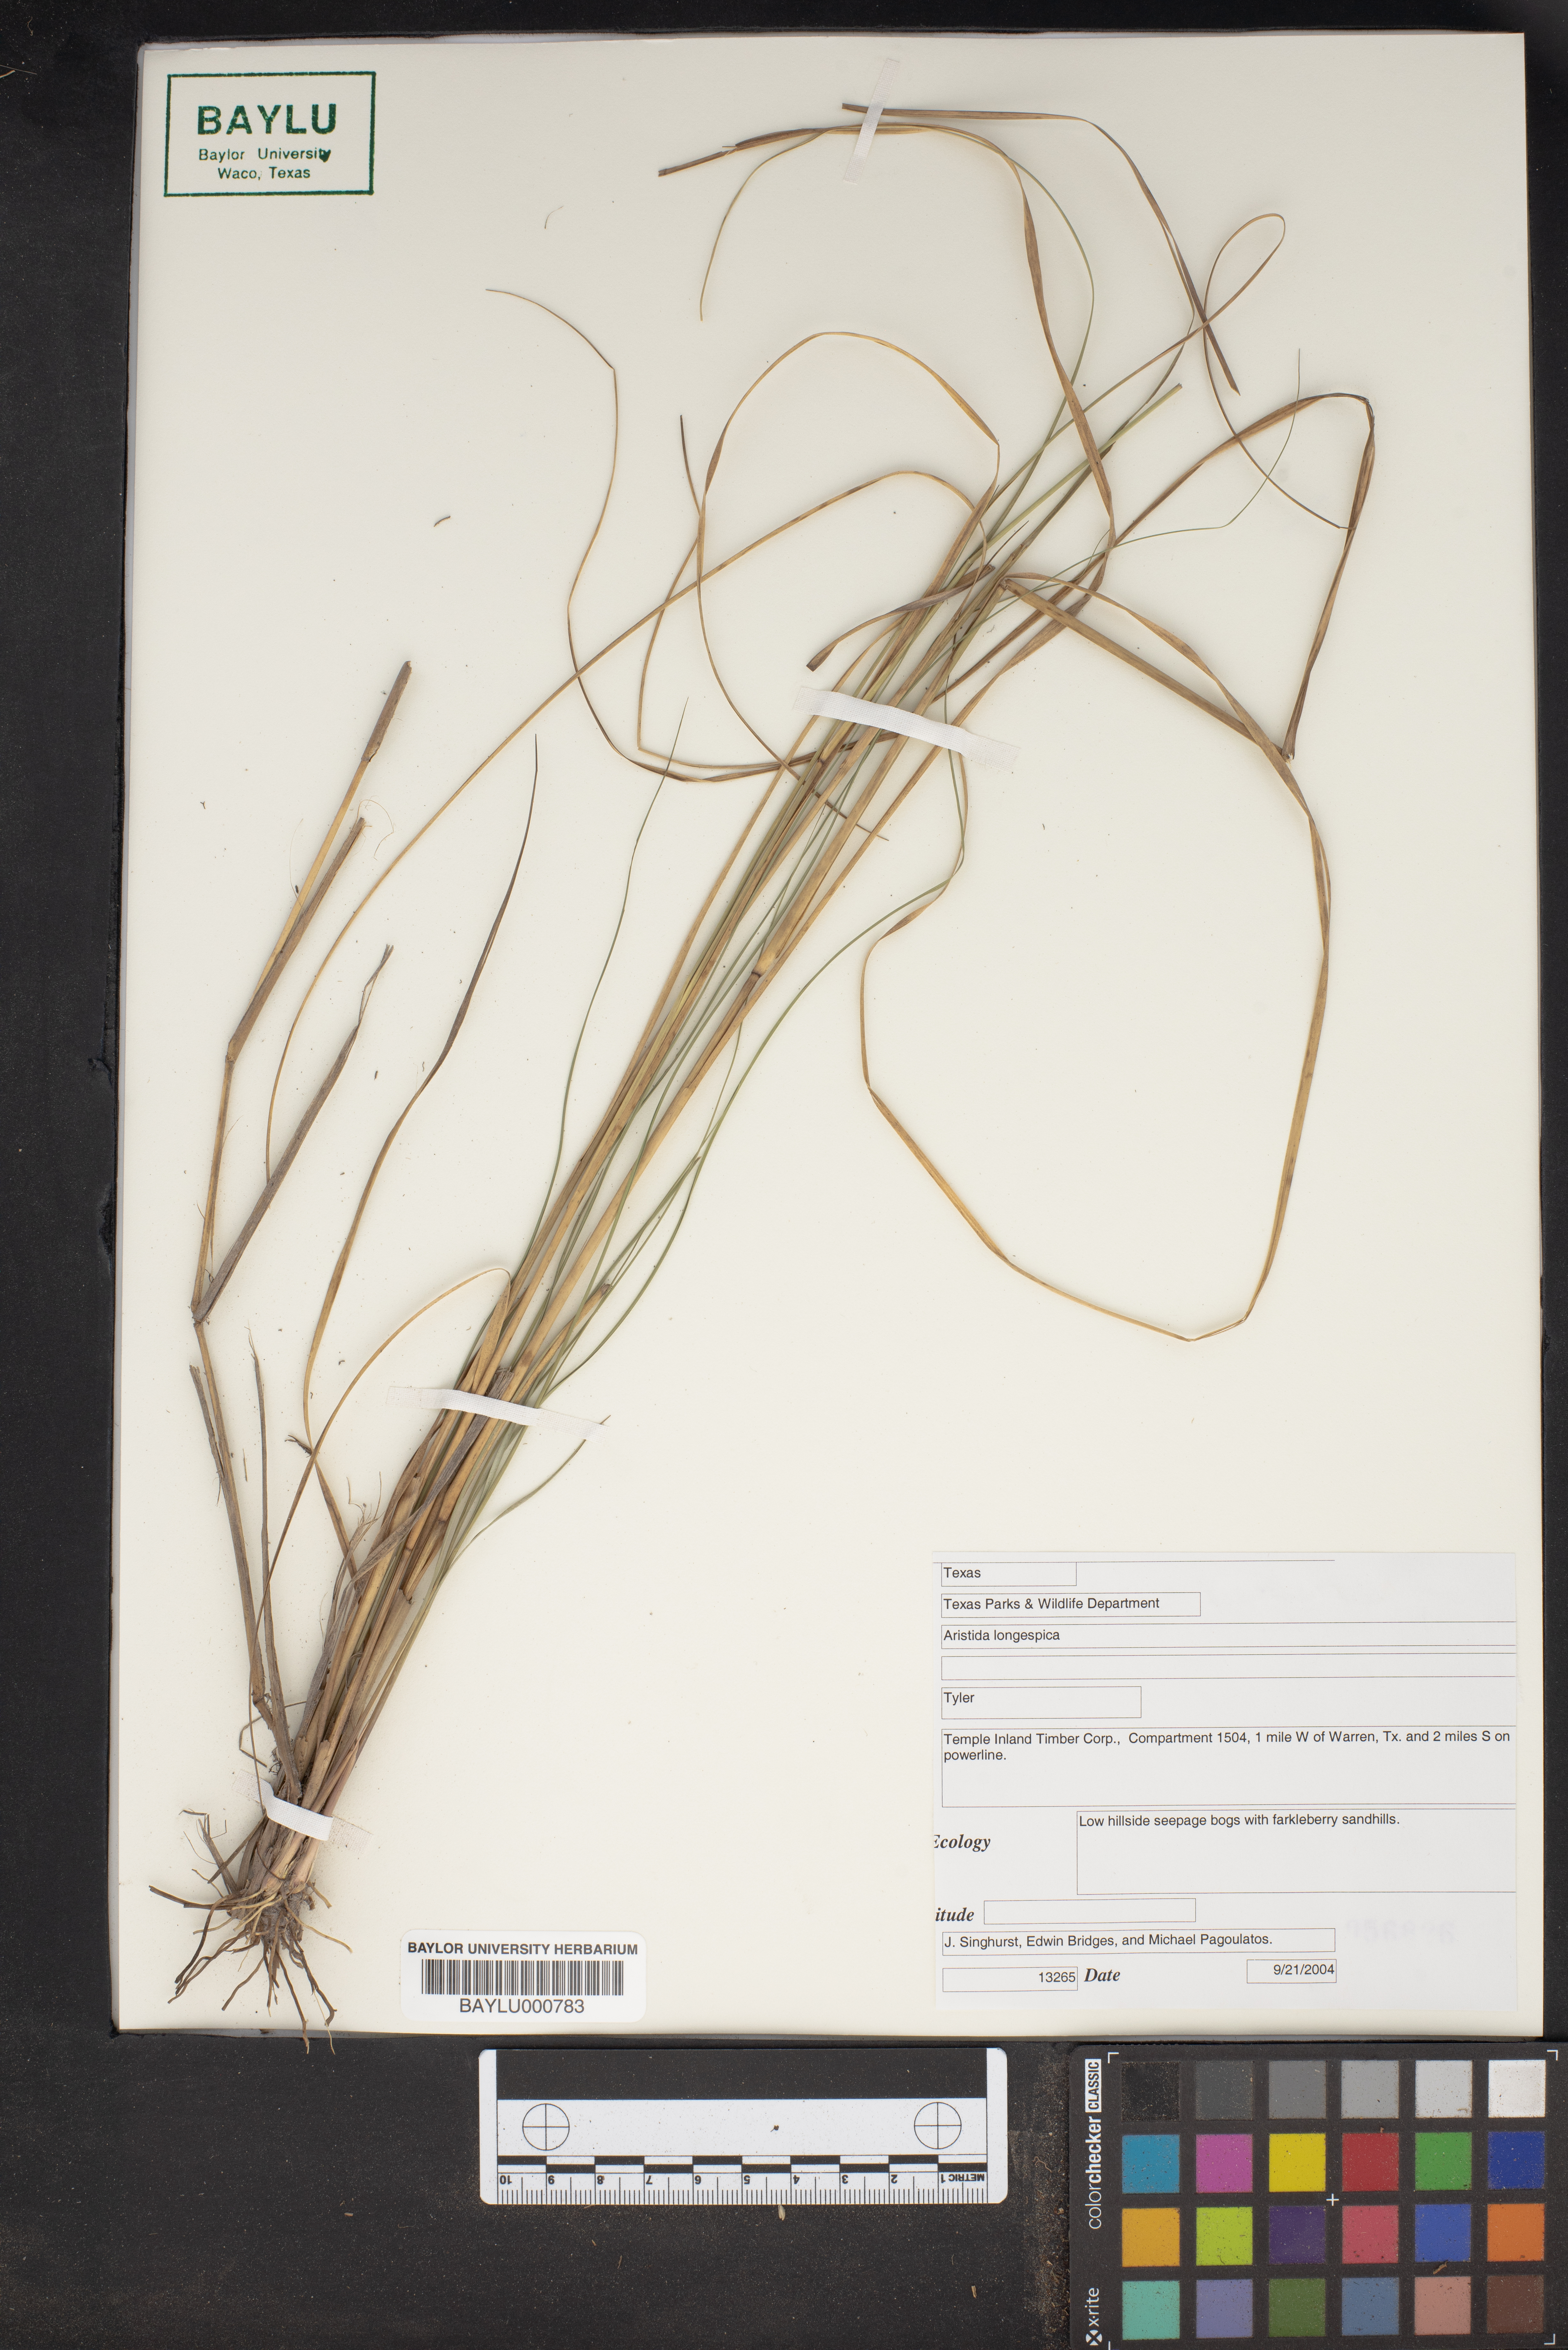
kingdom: Plantae
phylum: Tracheophyta
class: Liliopsida
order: Poales
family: Poaceae
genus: Aristida
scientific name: Aristida longespica
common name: Long-spiked triple-awned grass
